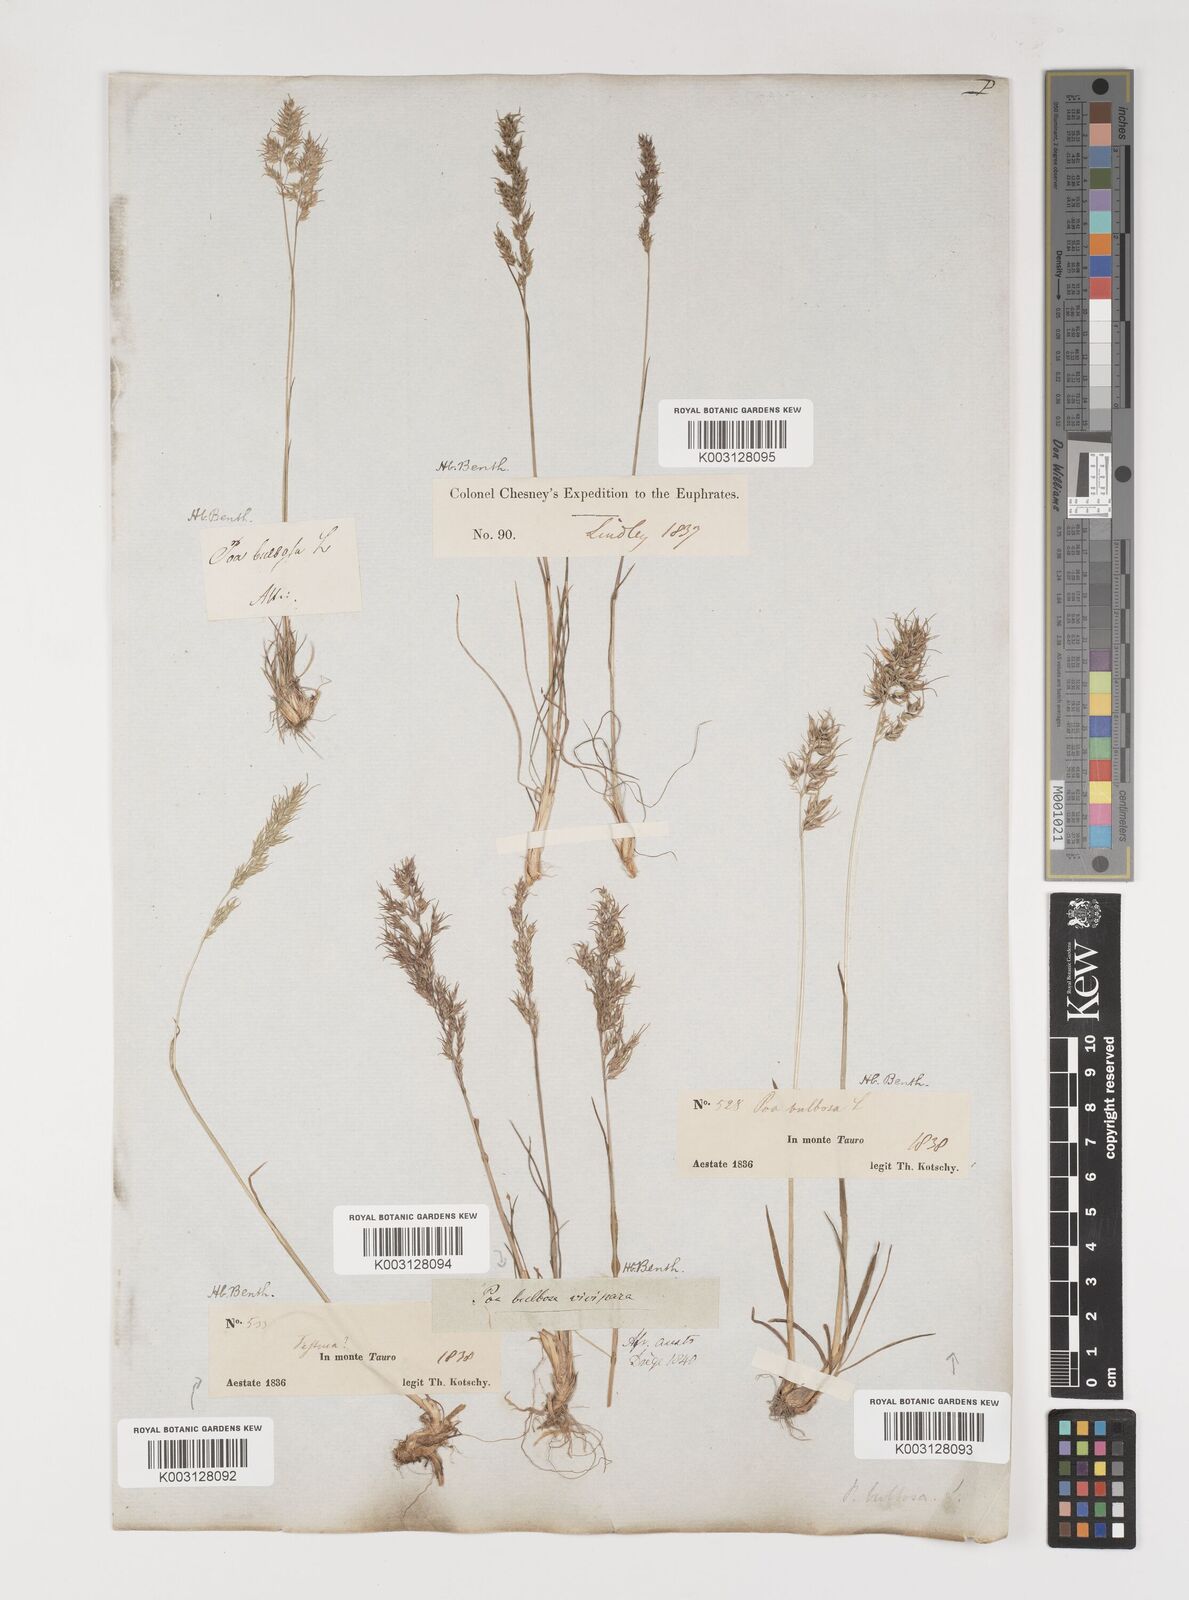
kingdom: Plantae
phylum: Tracheophyta
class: Liliopsida
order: Poales
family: Poaceae
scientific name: Poaceae
